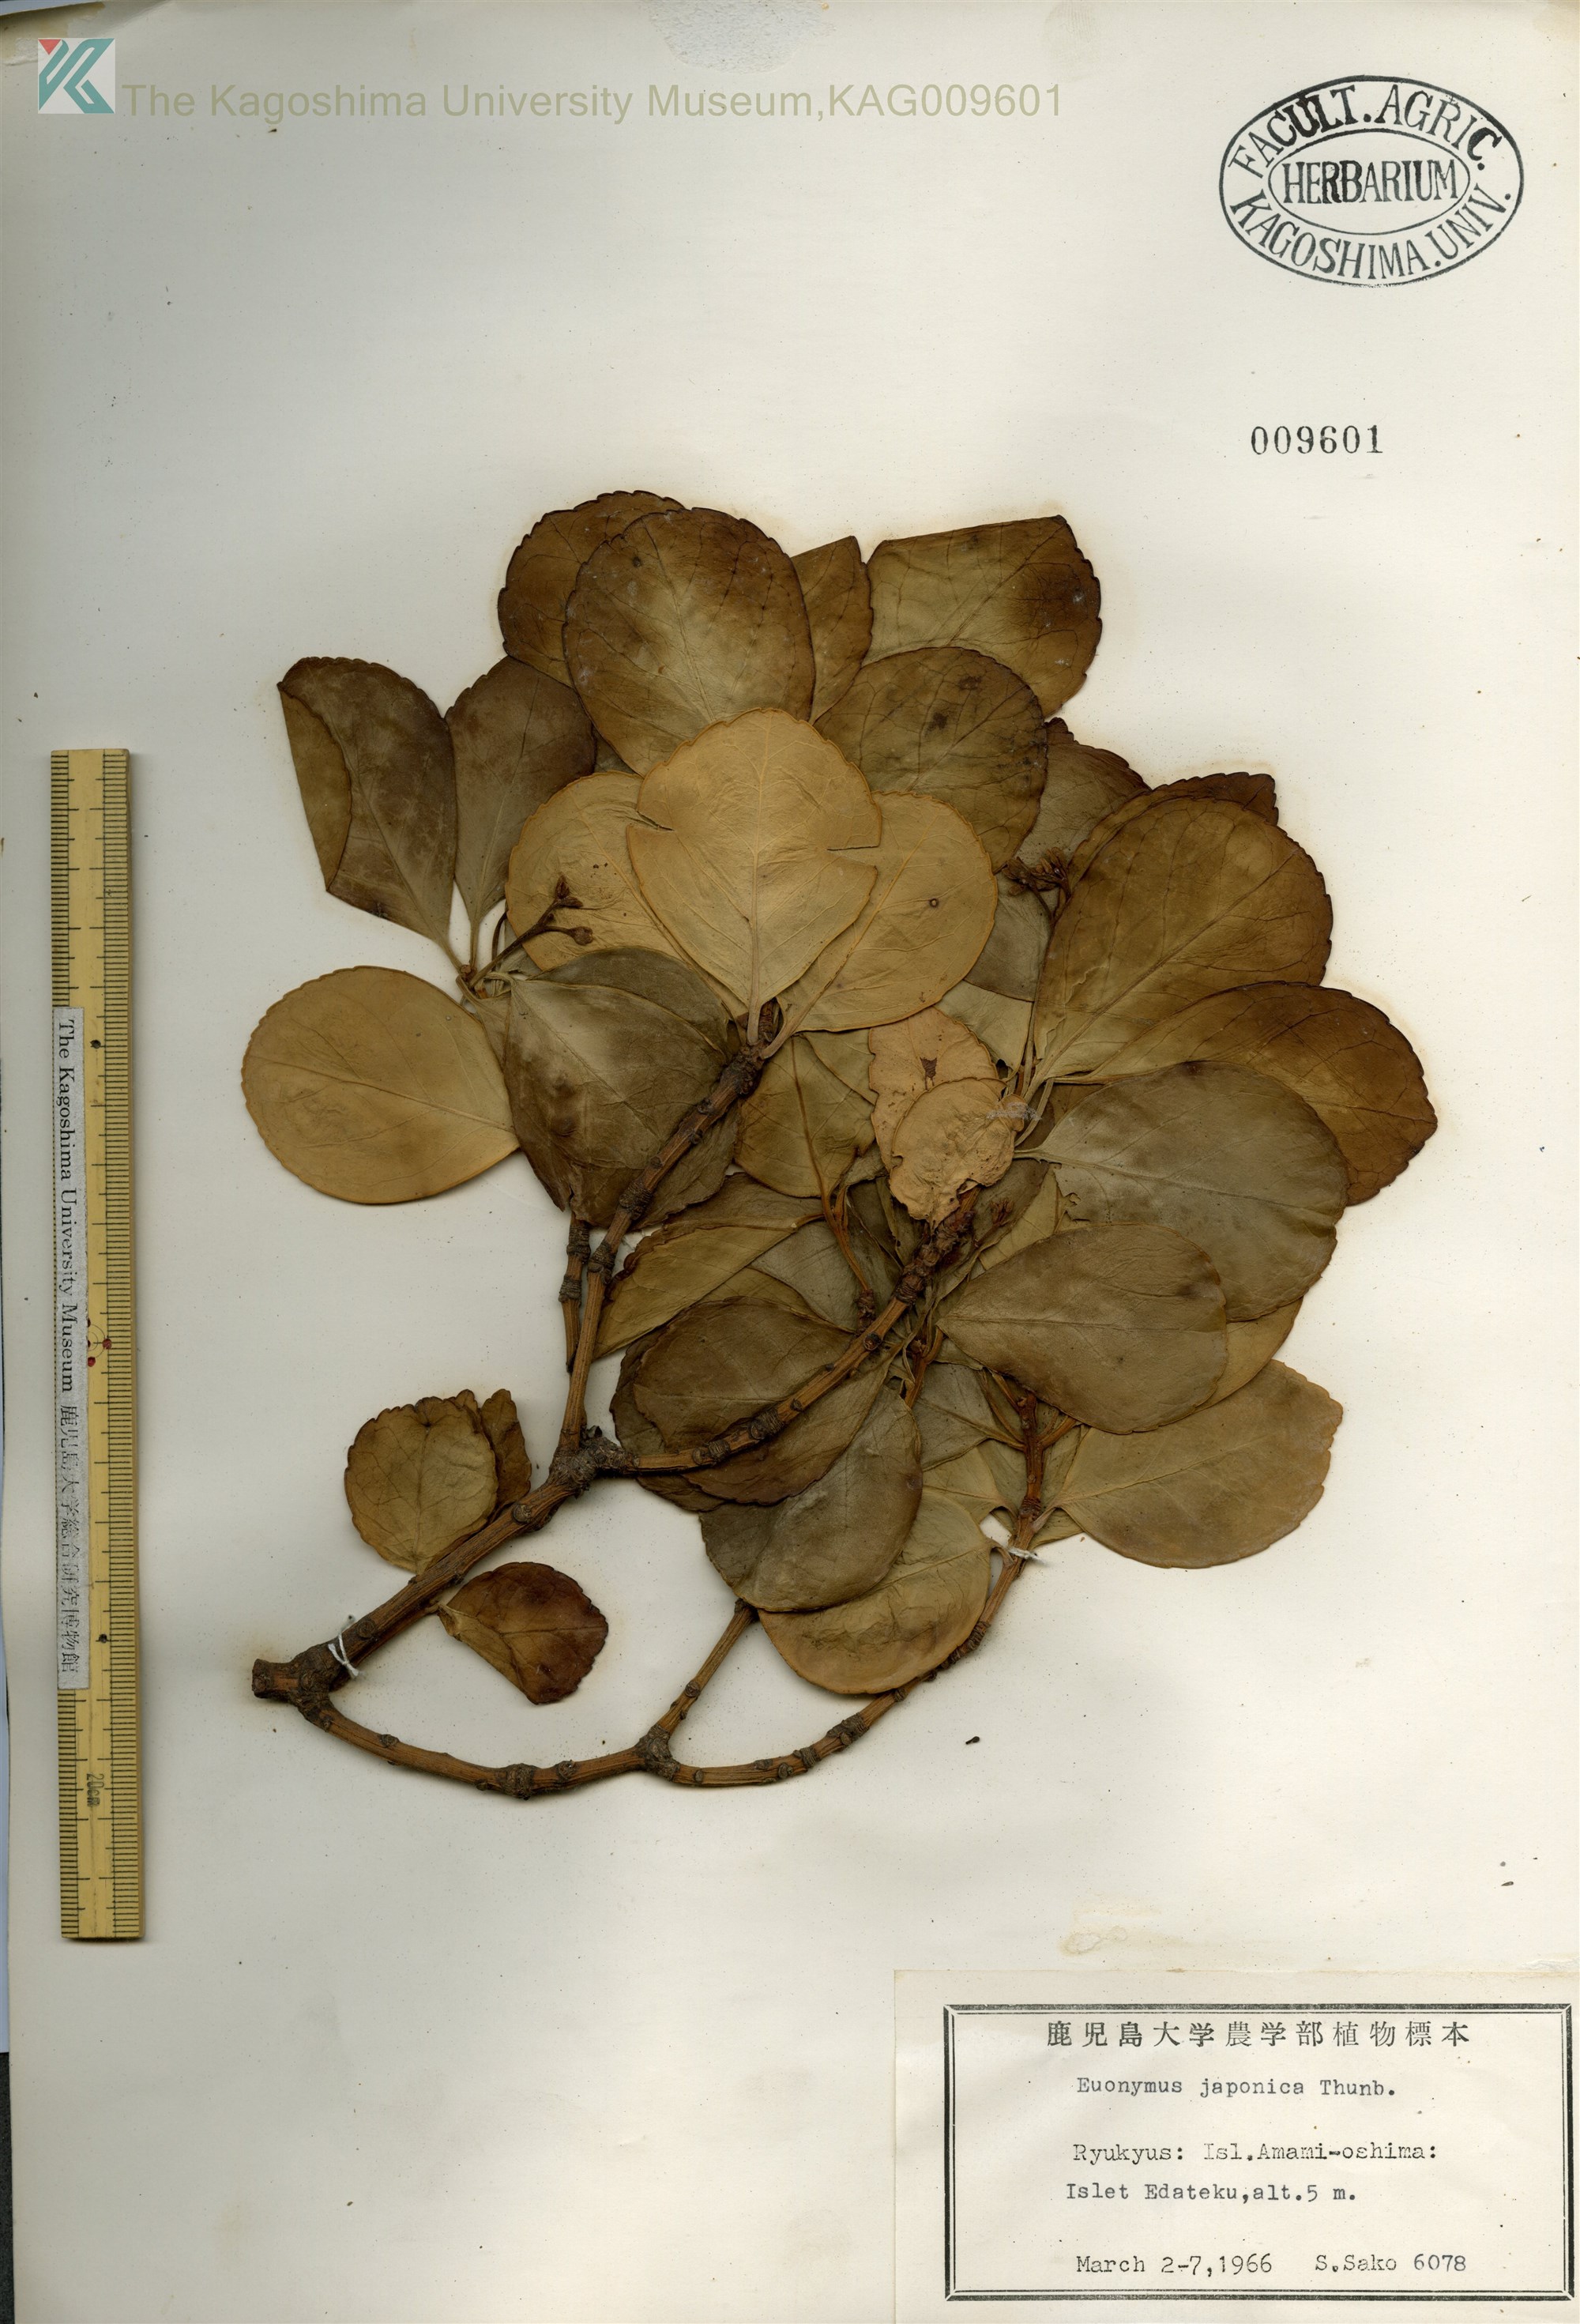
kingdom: Plantae
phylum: Tracheophyta
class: Magnoliopsida
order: Celastrales
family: Celastraceae
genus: Euonymus
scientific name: Euonymus japonicus
